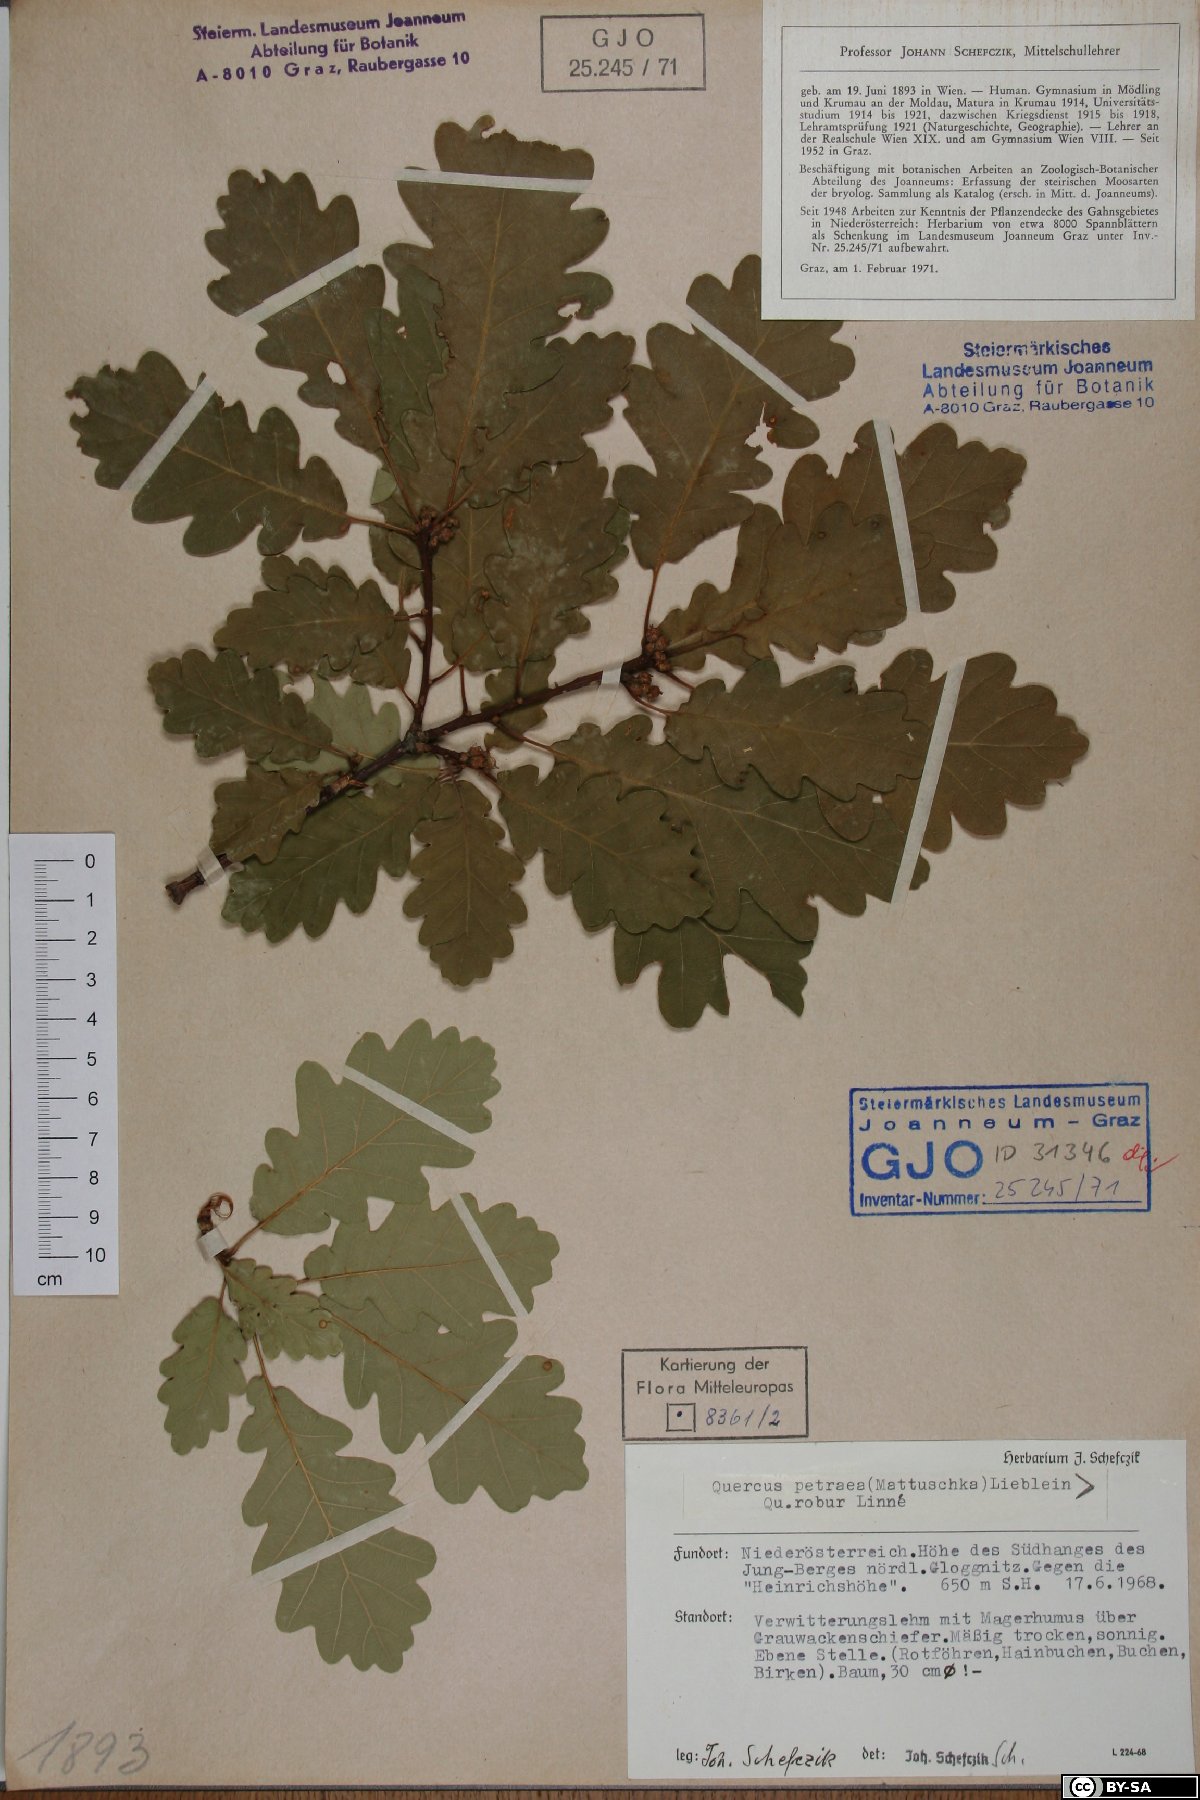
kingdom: Plantae
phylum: Tracheophyta
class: Magnoliopsida
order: Fagales
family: Fagaceae
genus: Quercus
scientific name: Quercus petraea
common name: Sessile oak
